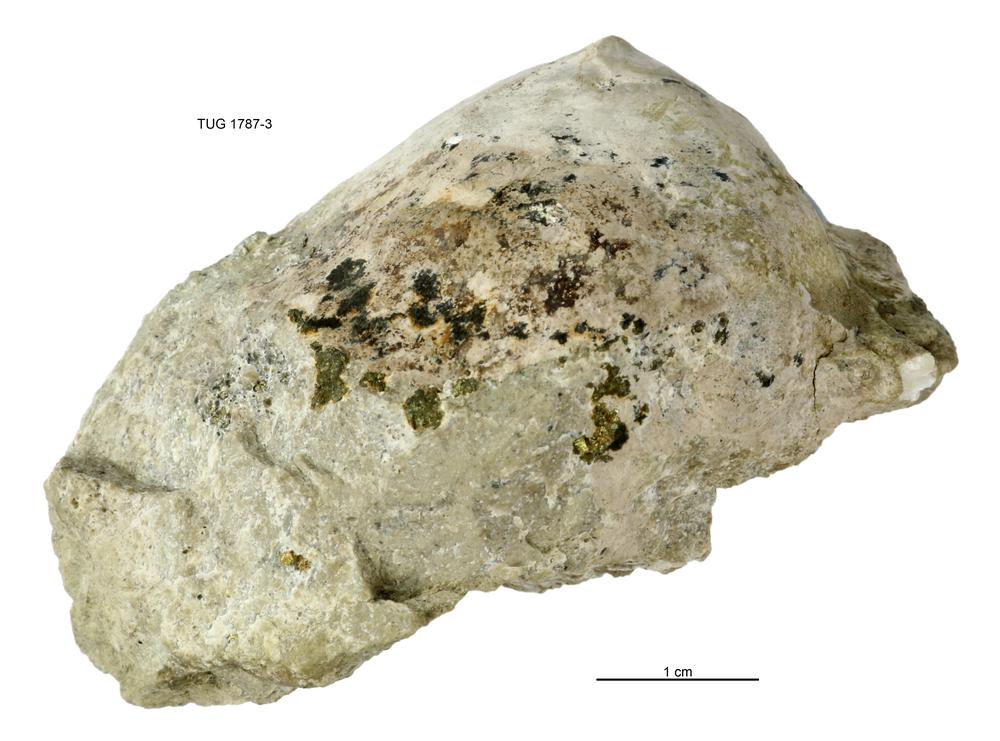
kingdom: Animalia
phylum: Mollusca
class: Monoplacophora
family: Metoptomatidae
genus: Metoptoma
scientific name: Metoptoma
